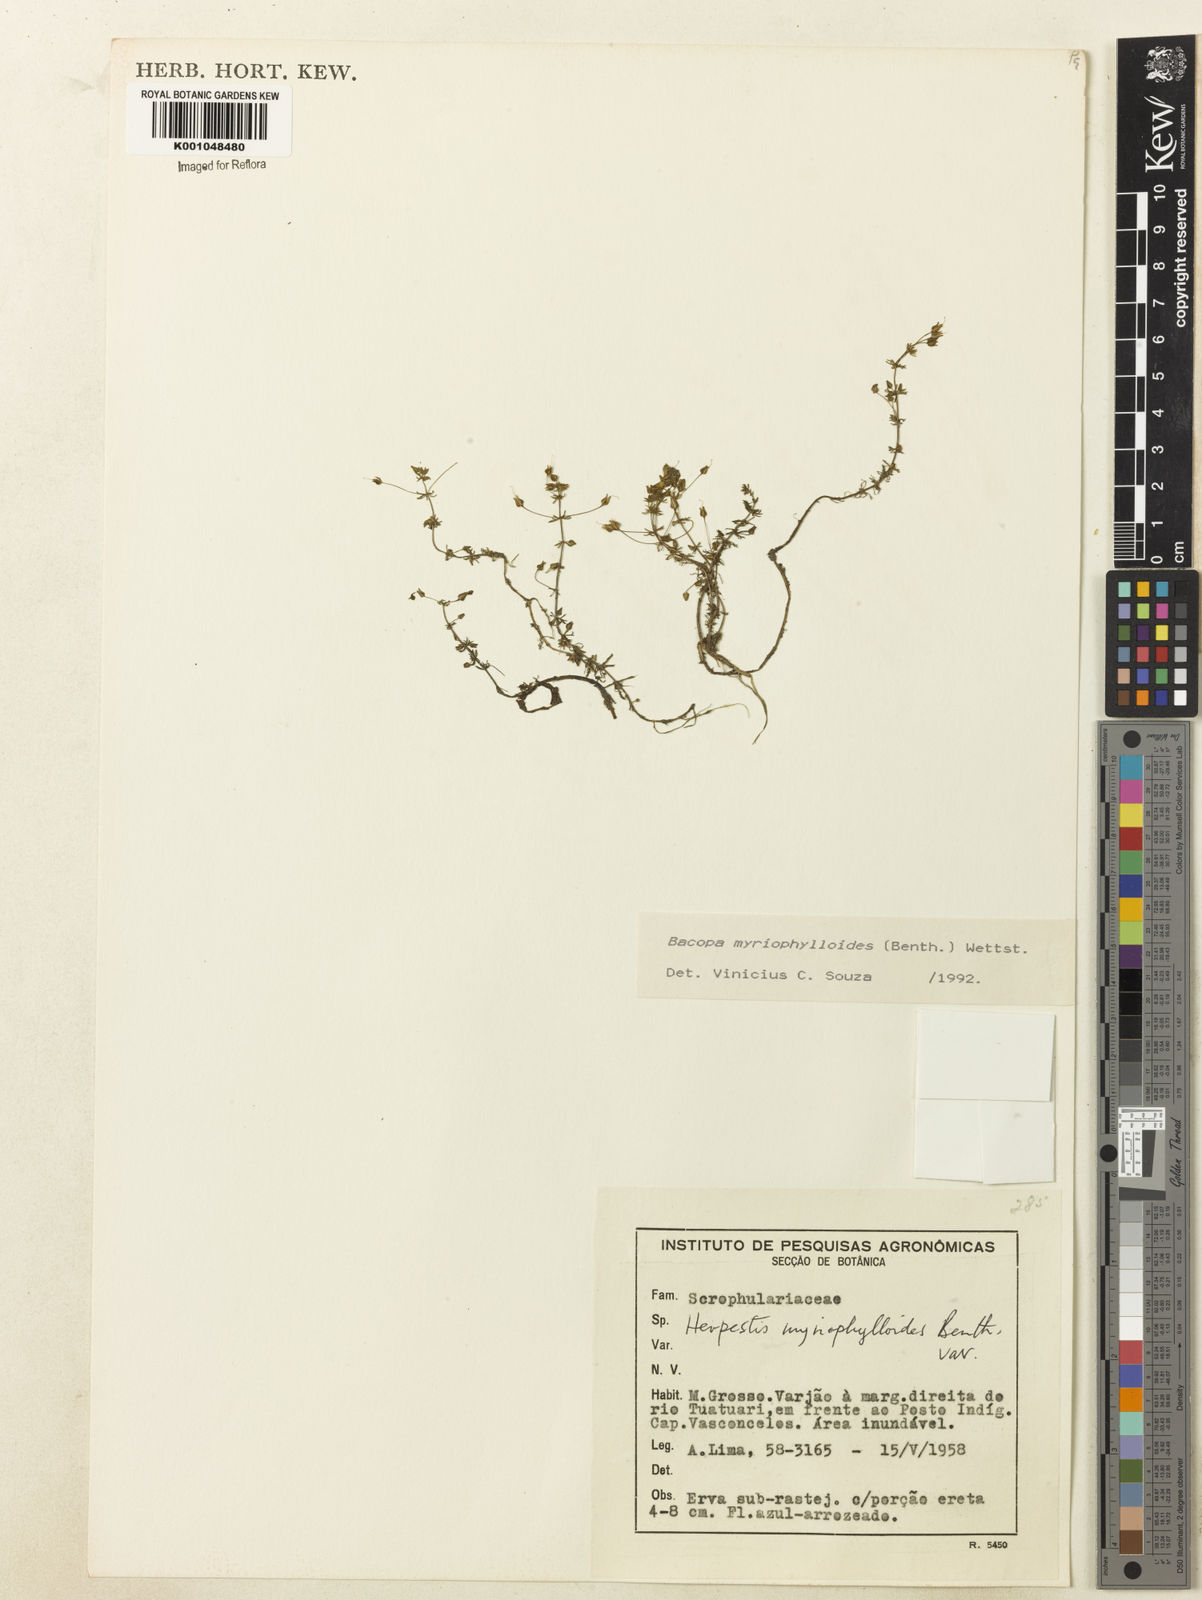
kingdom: Plantae
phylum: Tracheophyta
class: Magnoliopsida
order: Lamiales
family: Plantaginaceae
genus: Bacopa
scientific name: Bacopa myriophylloides
